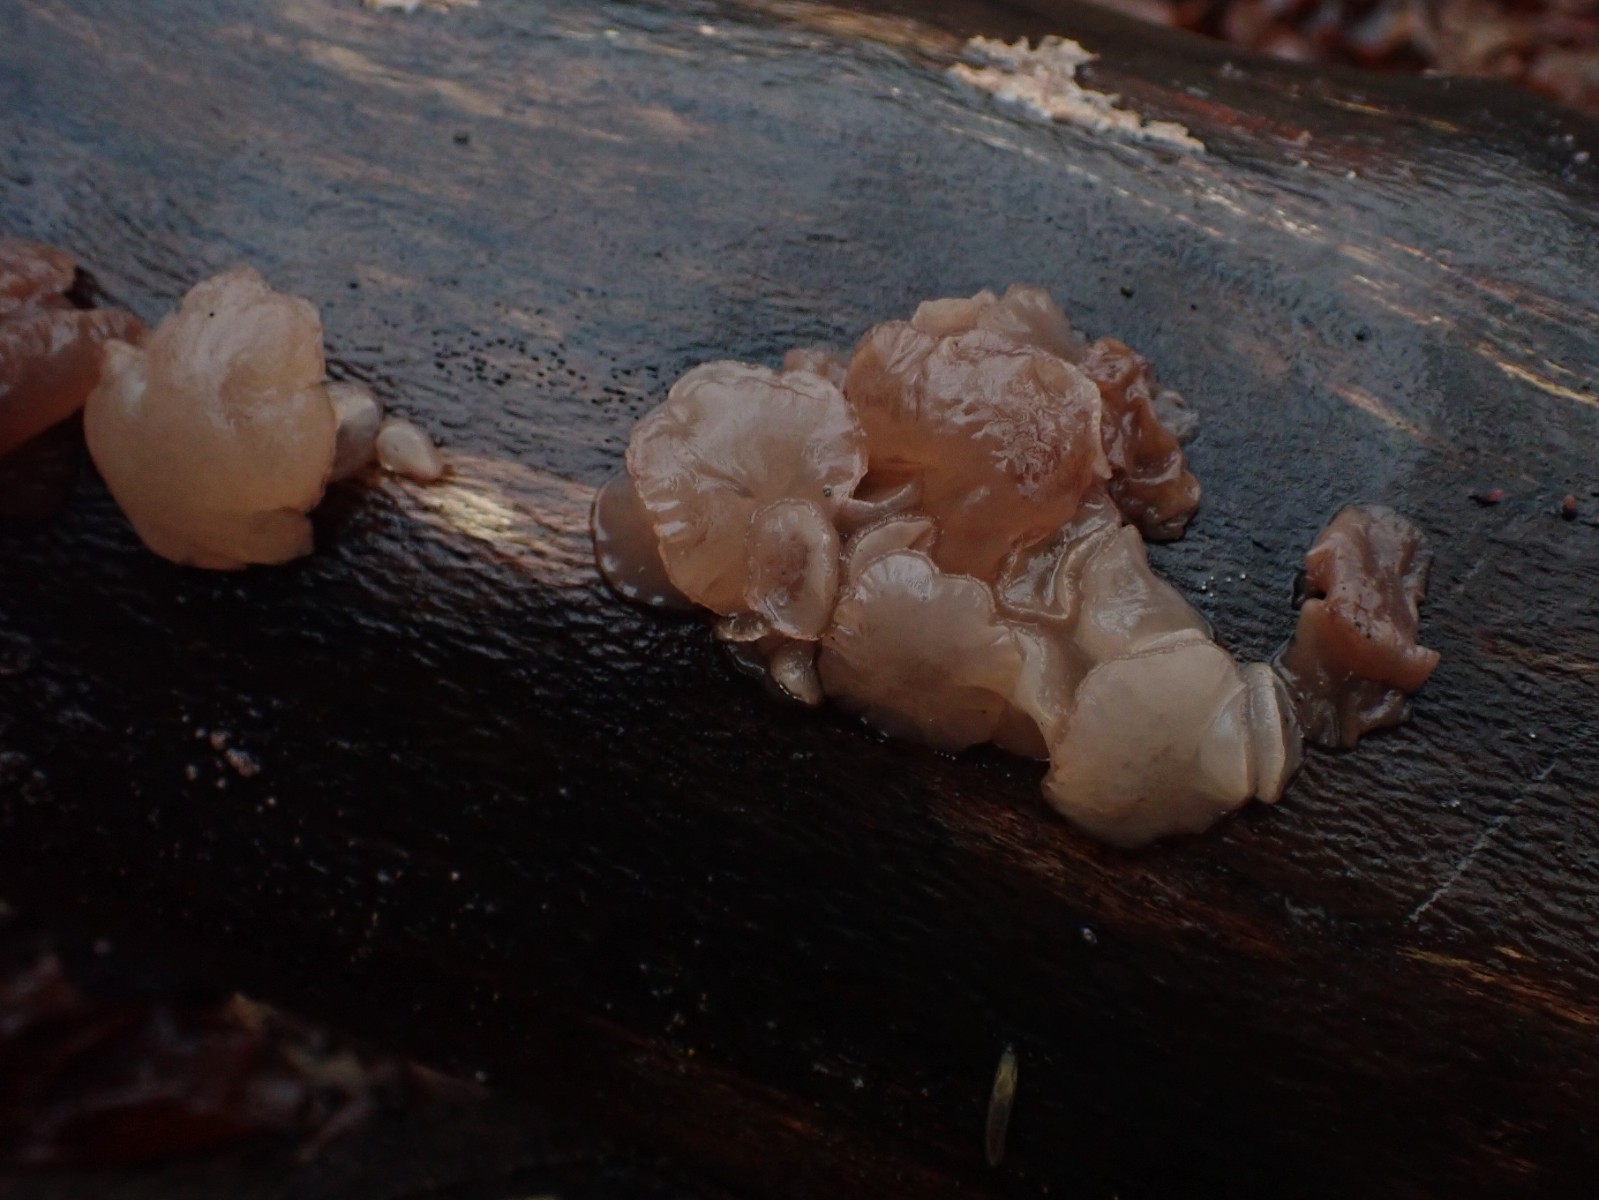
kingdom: Fungi
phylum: Ascomycota
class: Leotiomycetes
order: Helotiales
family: Gelatinodiscaceae
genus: Neobulgaria
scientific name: Neobulgaria pura
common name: bleg bævreskive
